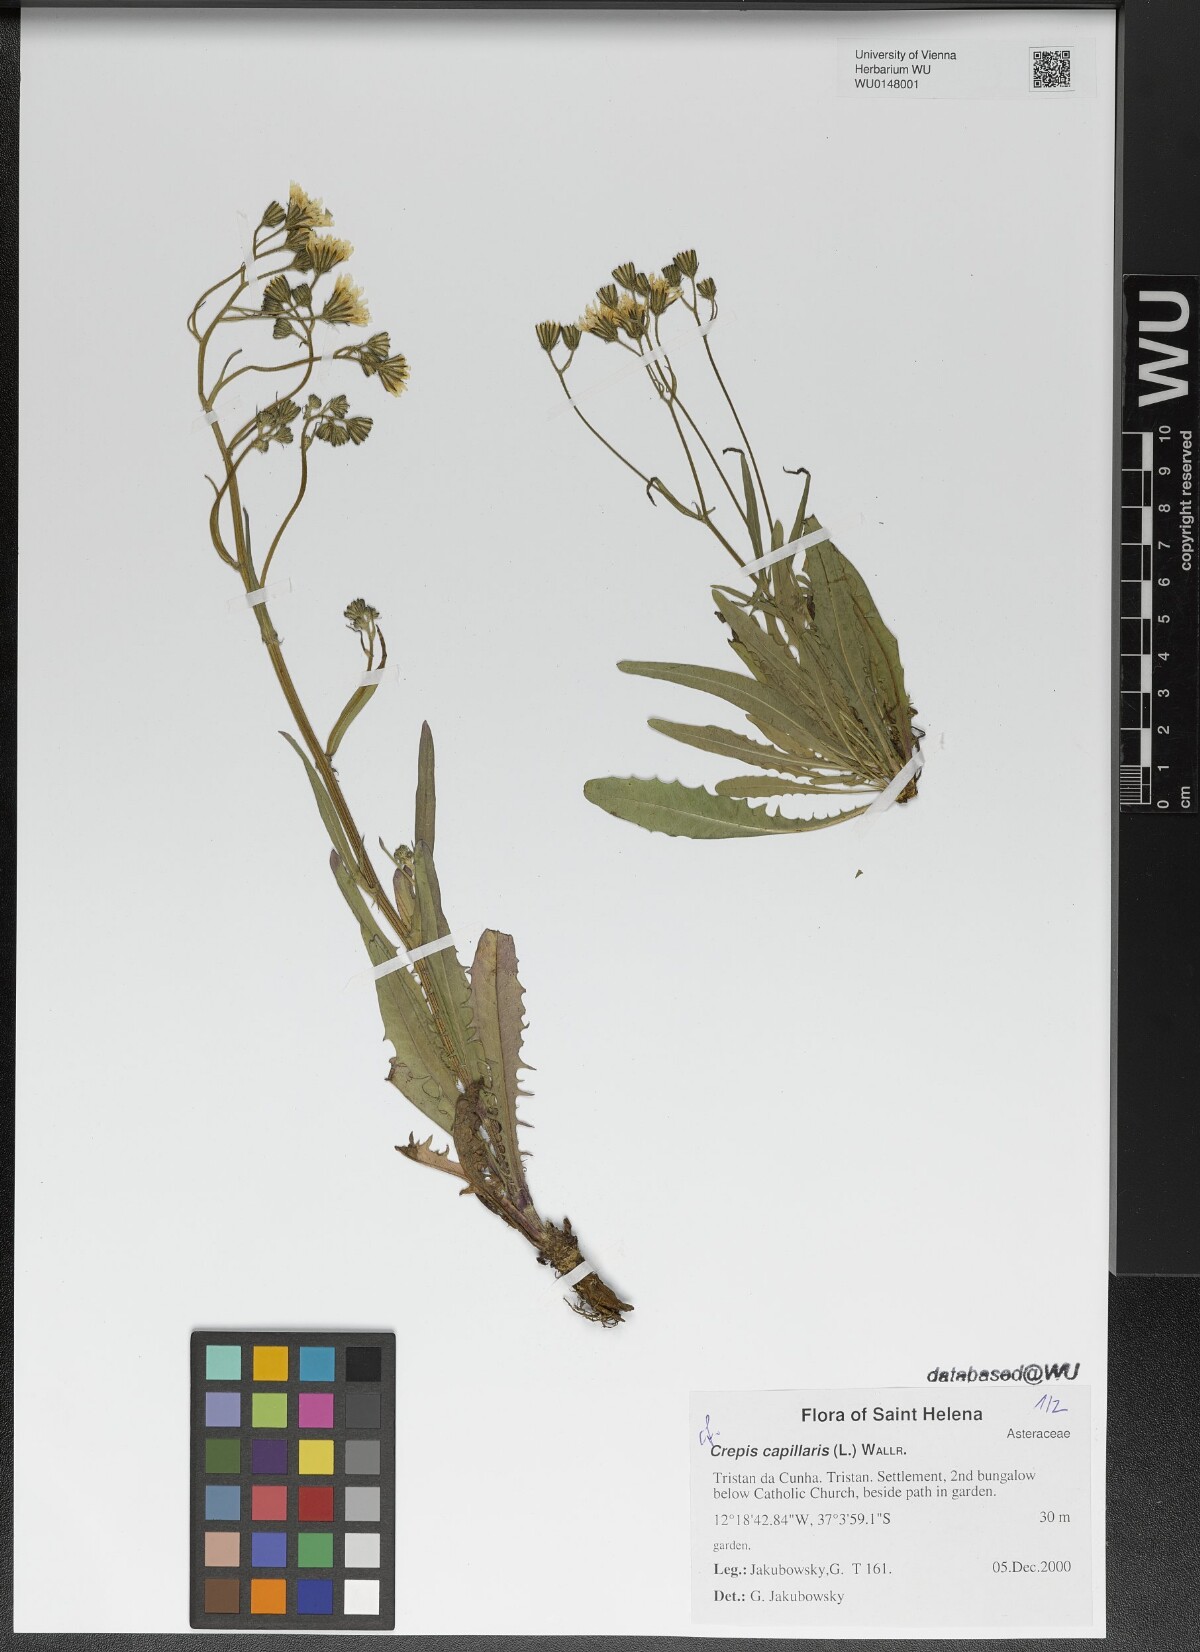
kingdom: Plantae
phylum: Tracheophyta
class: Magnoliopsida
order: Asterales
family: Asteraceae
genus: Crepis
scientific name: Crepis capillaris
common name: Smooth hawksbeard
